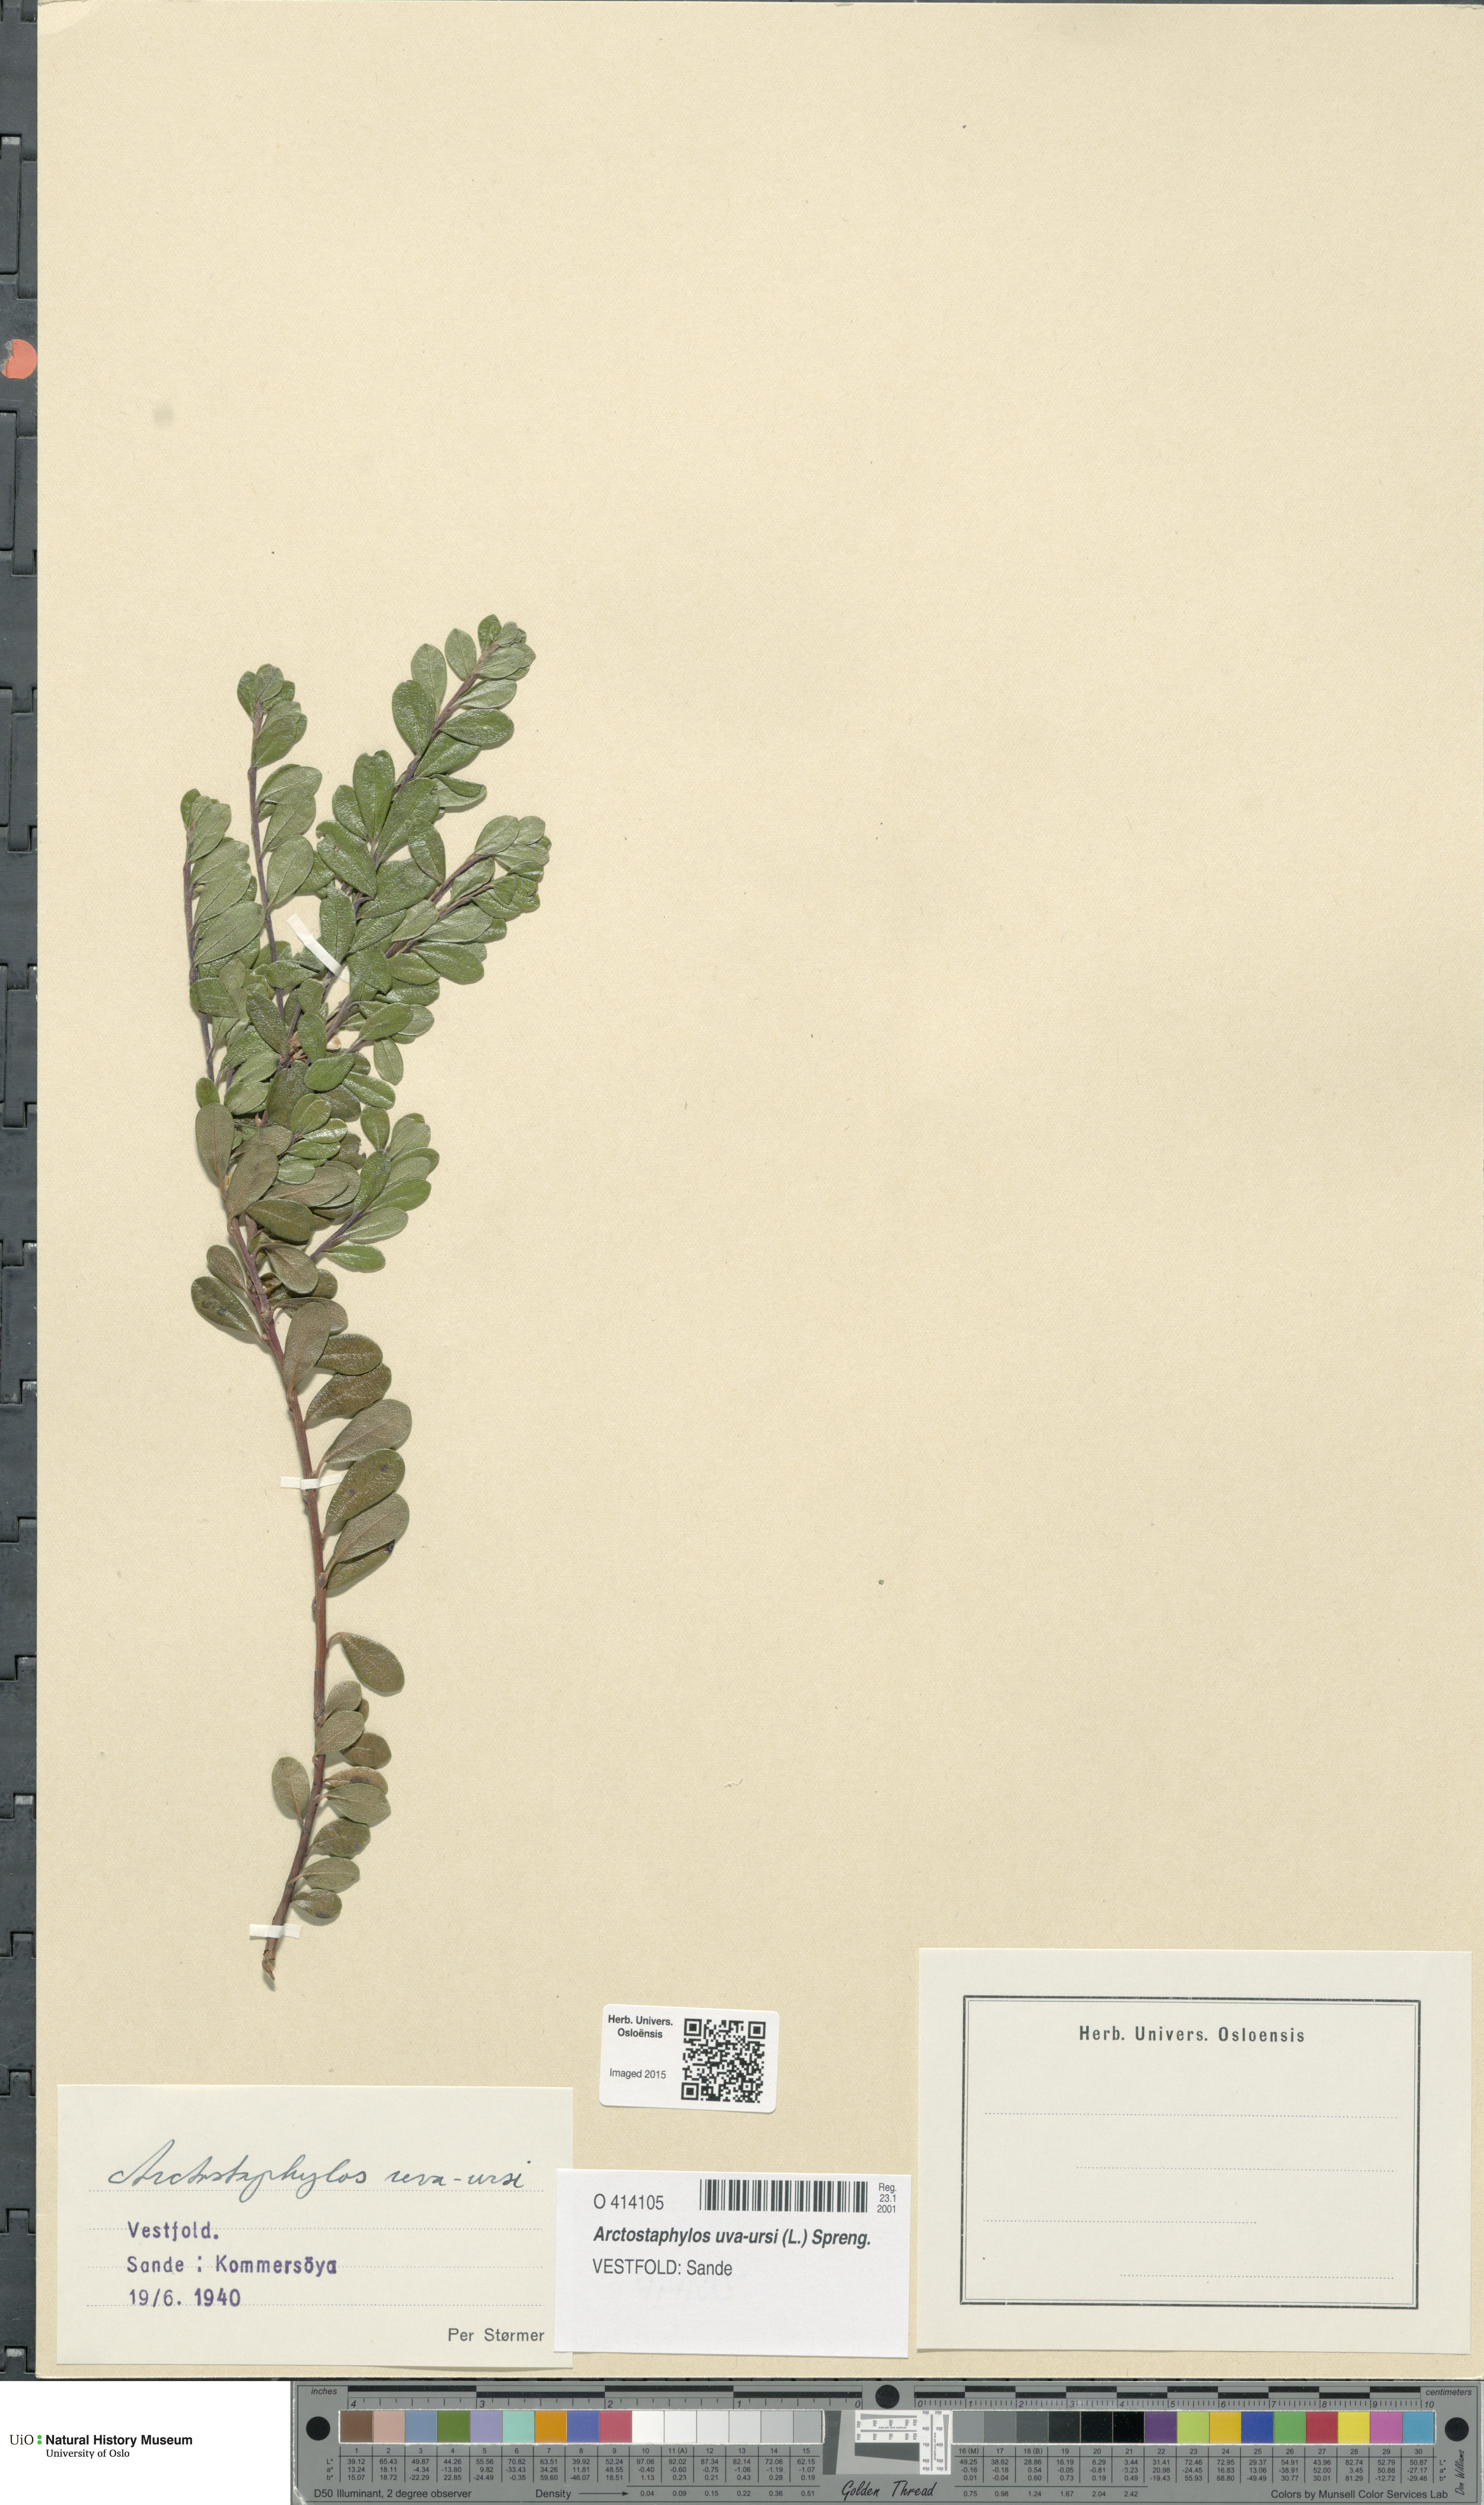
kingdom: Plantae
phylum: Tracheophyta
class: Magnoliopsida
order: Ericales
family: Ericaceae
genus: Arctostaphylos
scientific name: Arctostaphylos uva-ursi
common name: Bearberry
